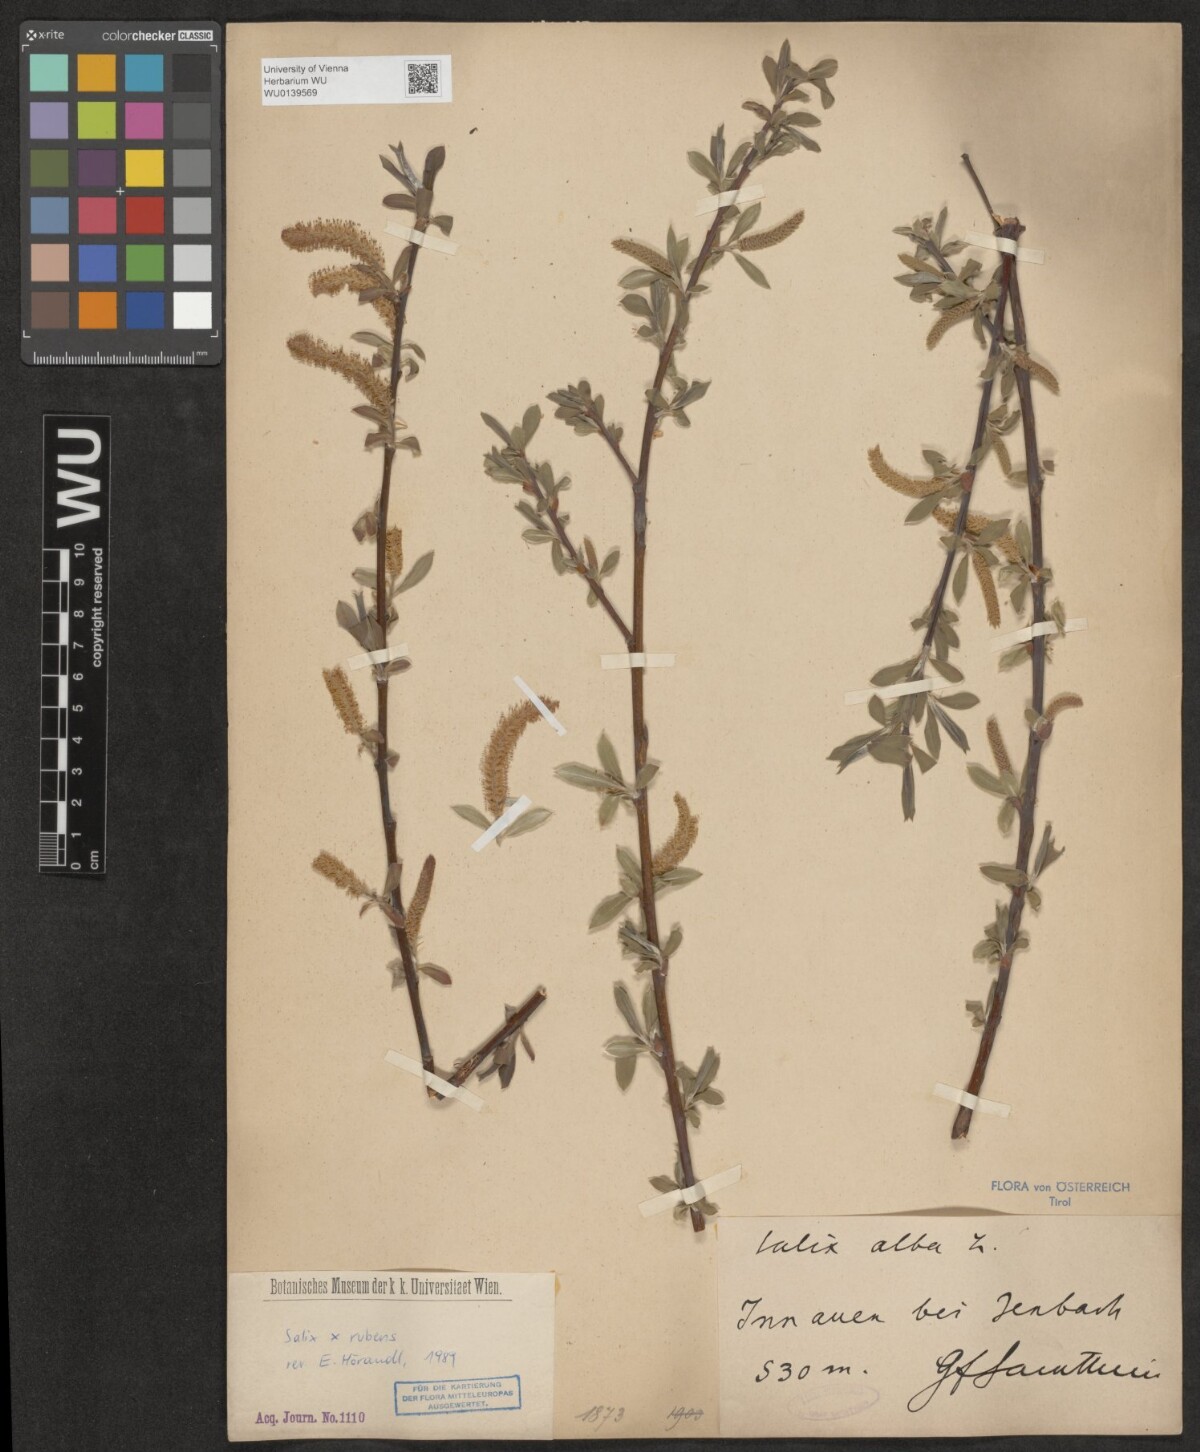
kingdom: Plantae
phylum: Tracheophyta
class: Magnoliopsida
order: Malpighiales
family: Salicaceae
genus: Salix
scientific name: Salix rubens
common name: Hybrid crack willow
